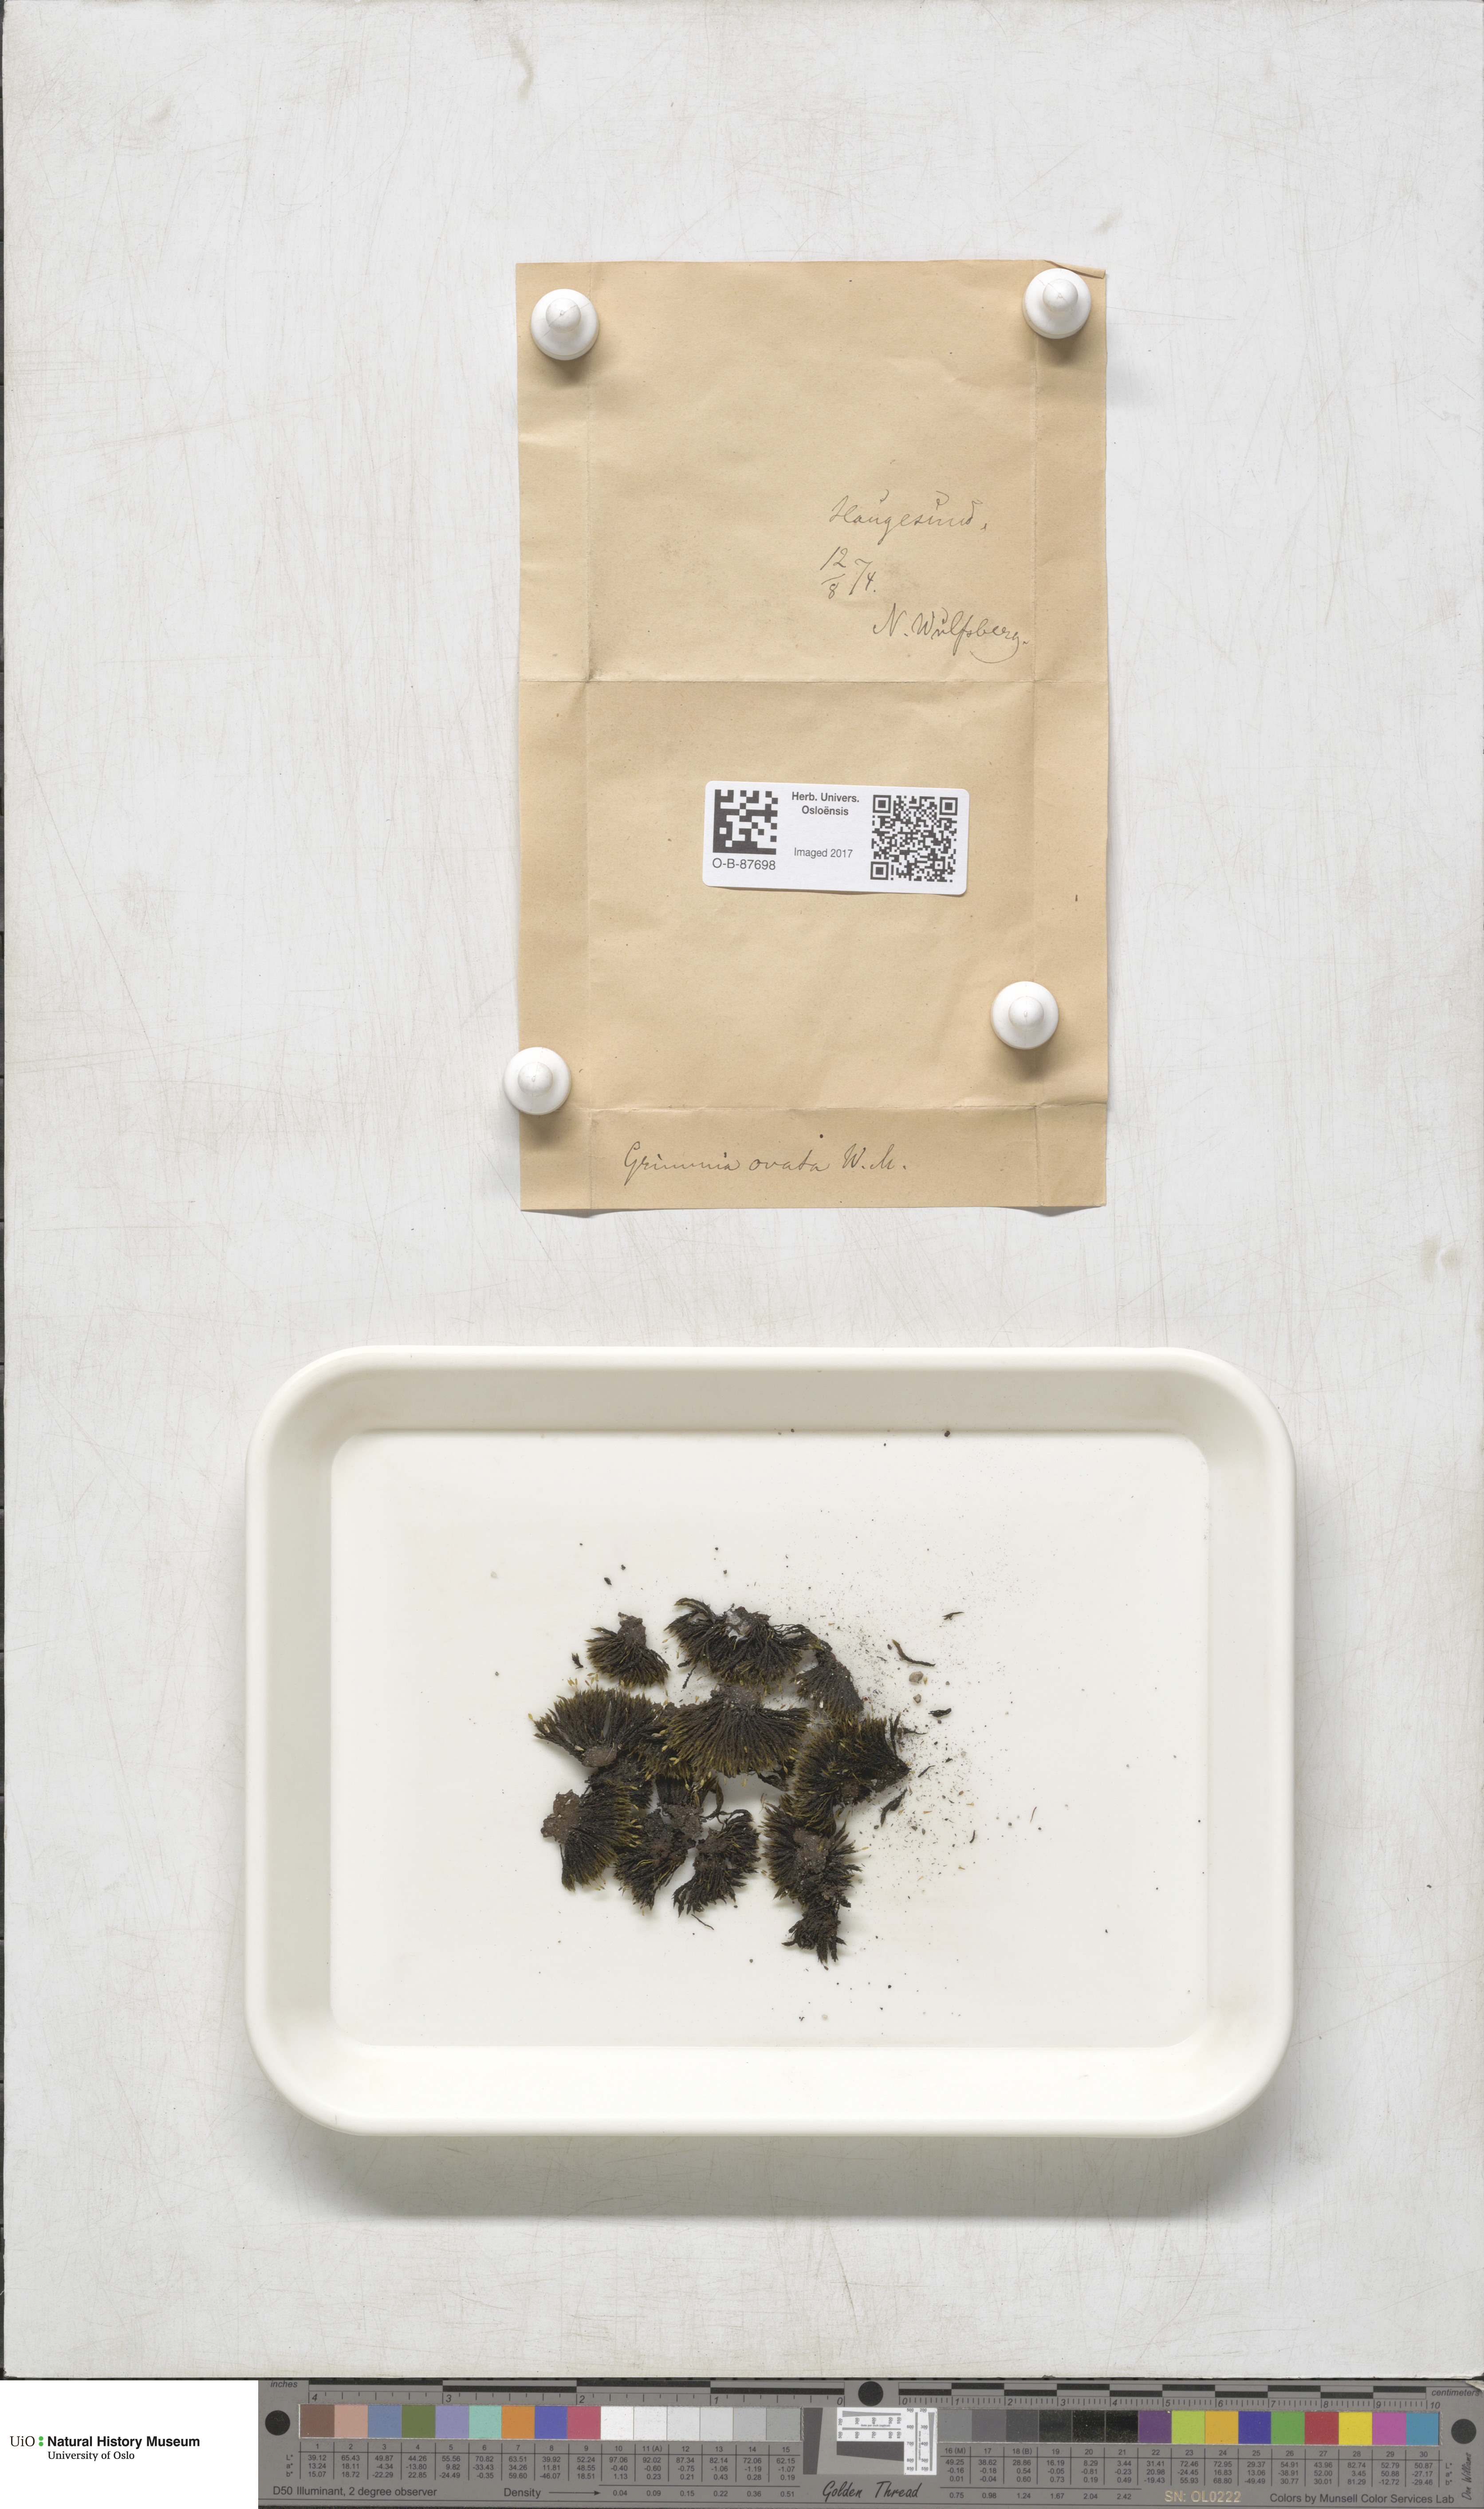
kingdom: Plantae
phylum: Bryophyta
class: Bryopsida
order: Grimmiales
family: Grimmiaceae
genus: Grimmia
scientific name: Grimmia ovalis
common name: Oval grimmia
